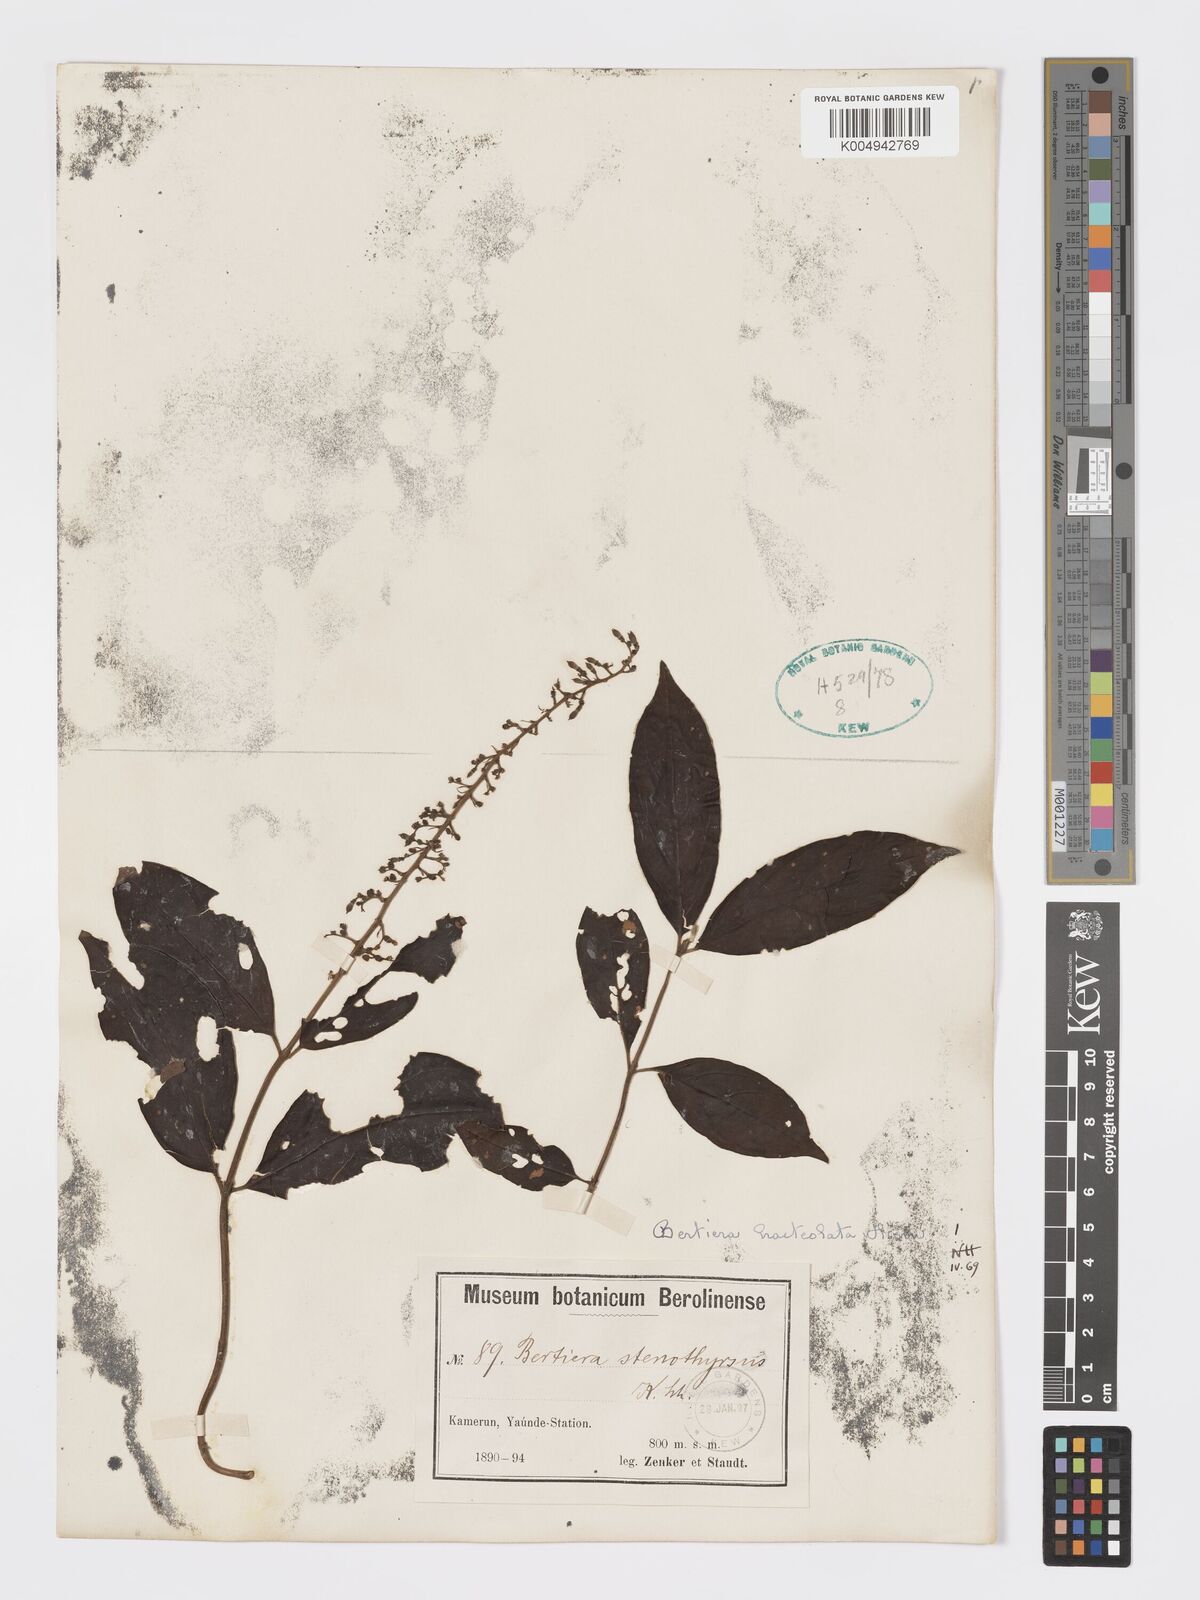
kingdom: Plantae
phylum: Tracheophyta
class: Magnoliopsida
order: Gentianales
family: Rubiaceae
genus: Bertiera
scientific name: Bertiera bracteolata
